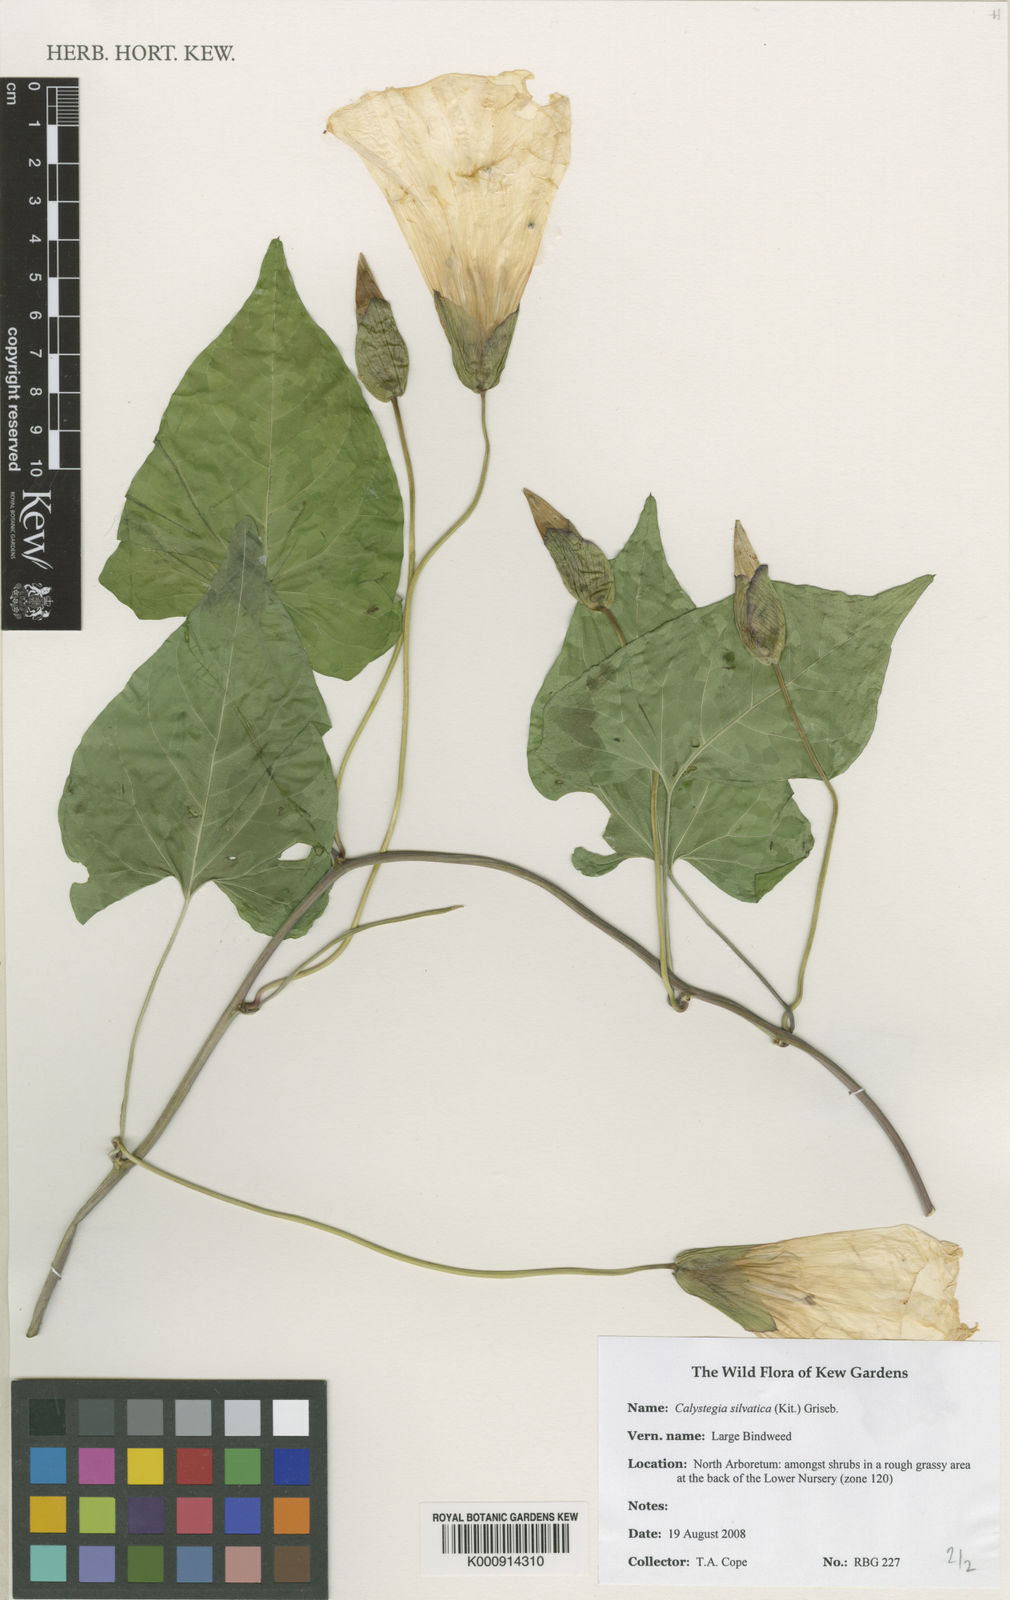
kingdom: Plantae
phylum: Tracheophyta
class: Magnoliopsida
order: Solanales
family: Convolvulaceae
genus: Calystegia
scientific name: Calystegia silvatica
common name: Large bindweed
